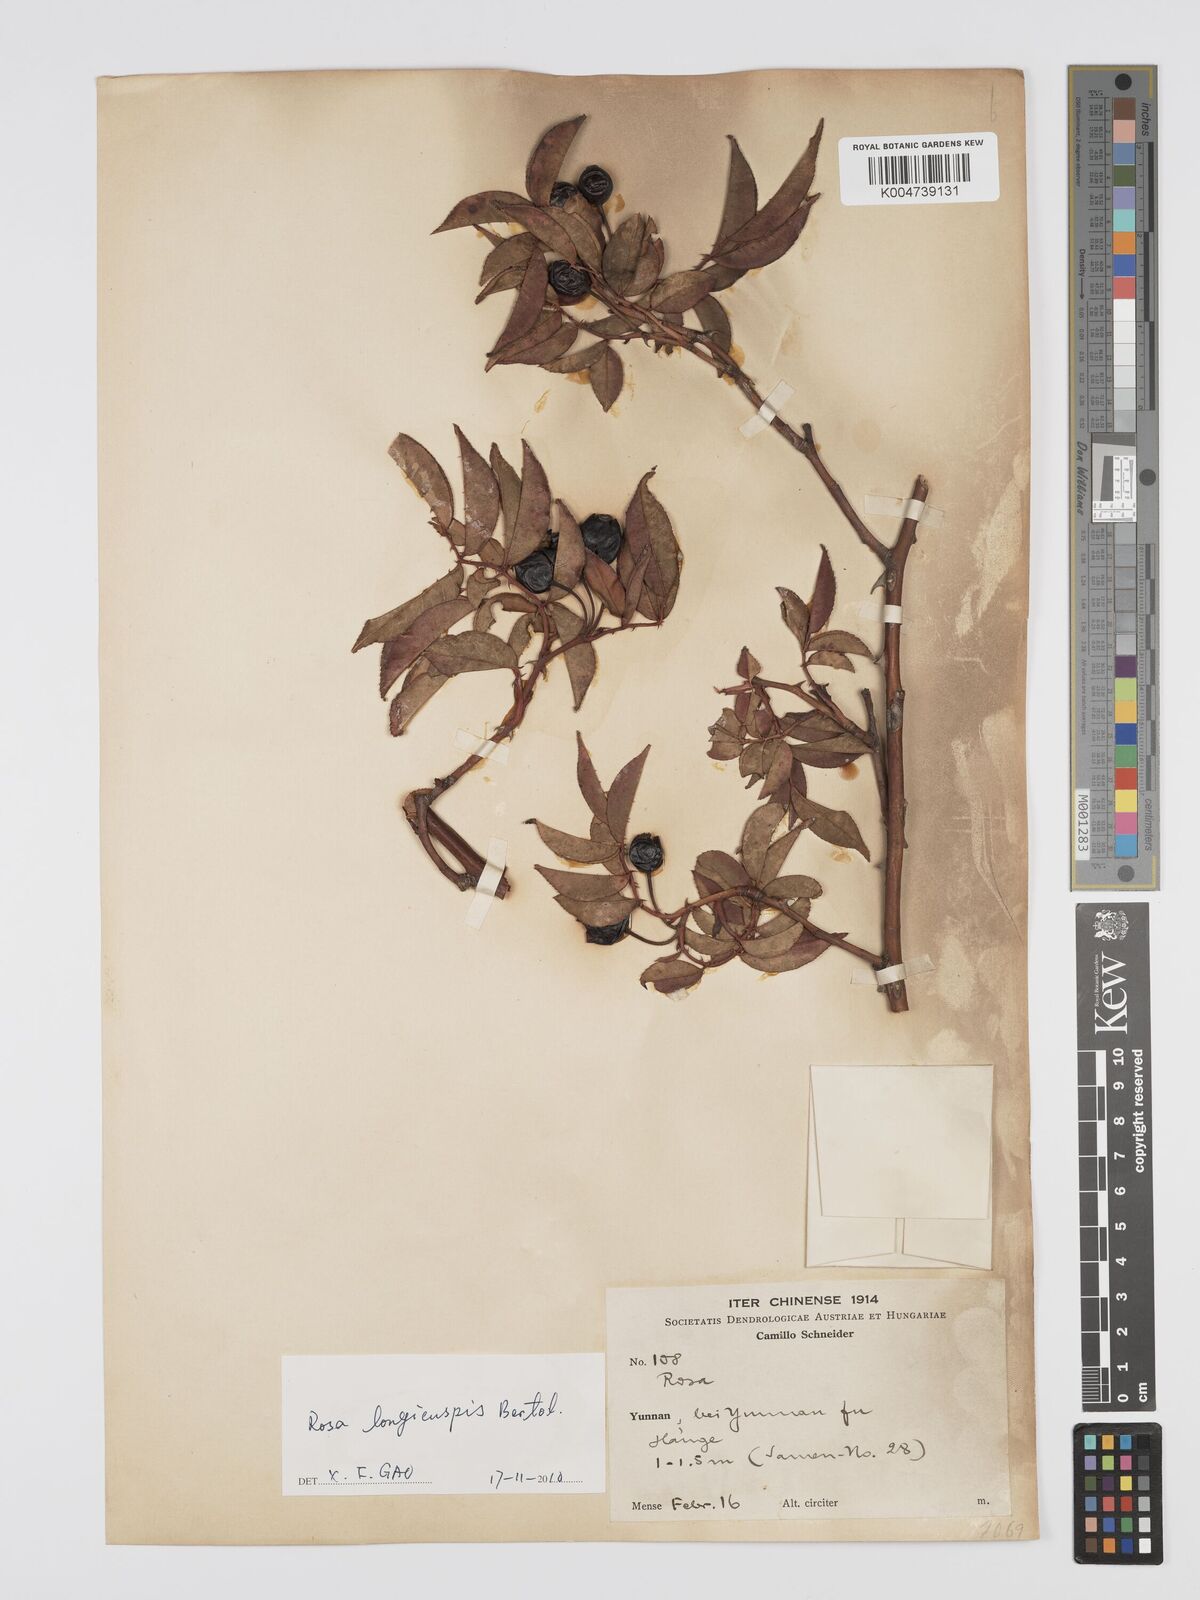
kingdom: Plantae
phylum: Tracheophyta
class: Magnoliopsida
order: Rosales
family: Rosaceae
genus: Rosa
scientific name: Rosa longicuspis
